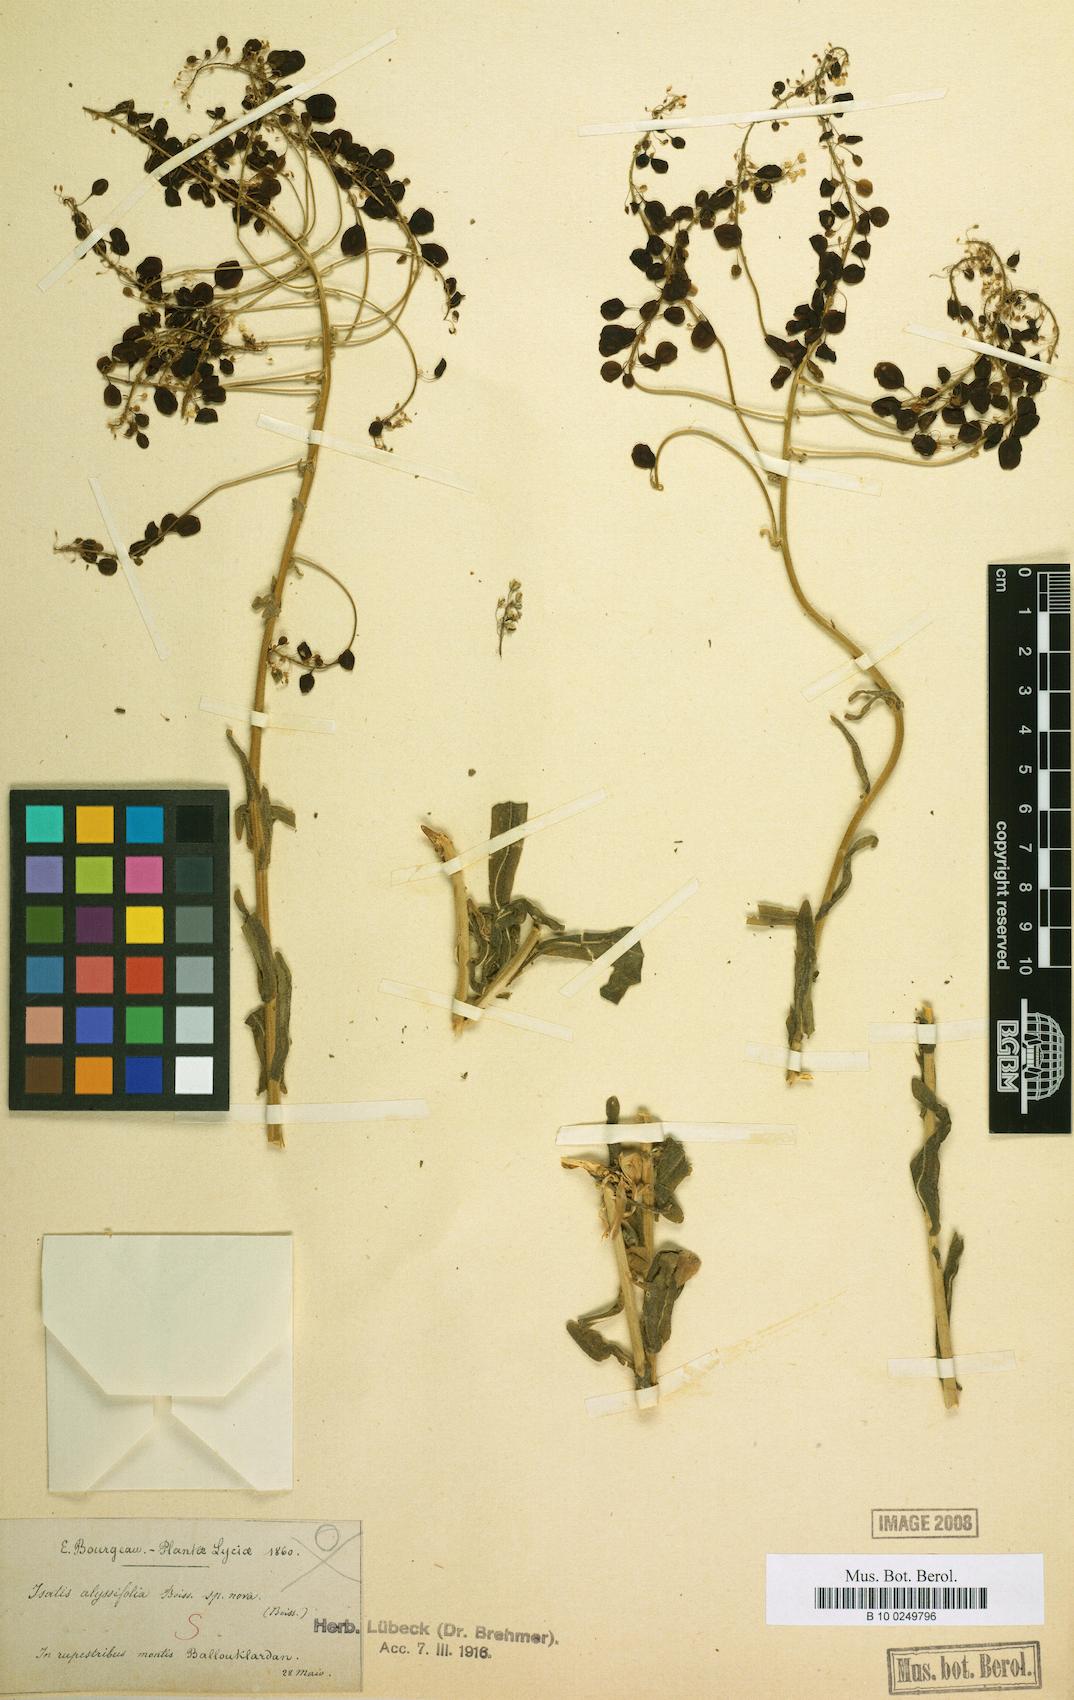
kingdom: Plantae
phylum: Tracheophyta
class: Magnoliopsida
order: Brassicales
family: Brassicaceae
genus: Isatis
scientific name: Isatis cappadocica
